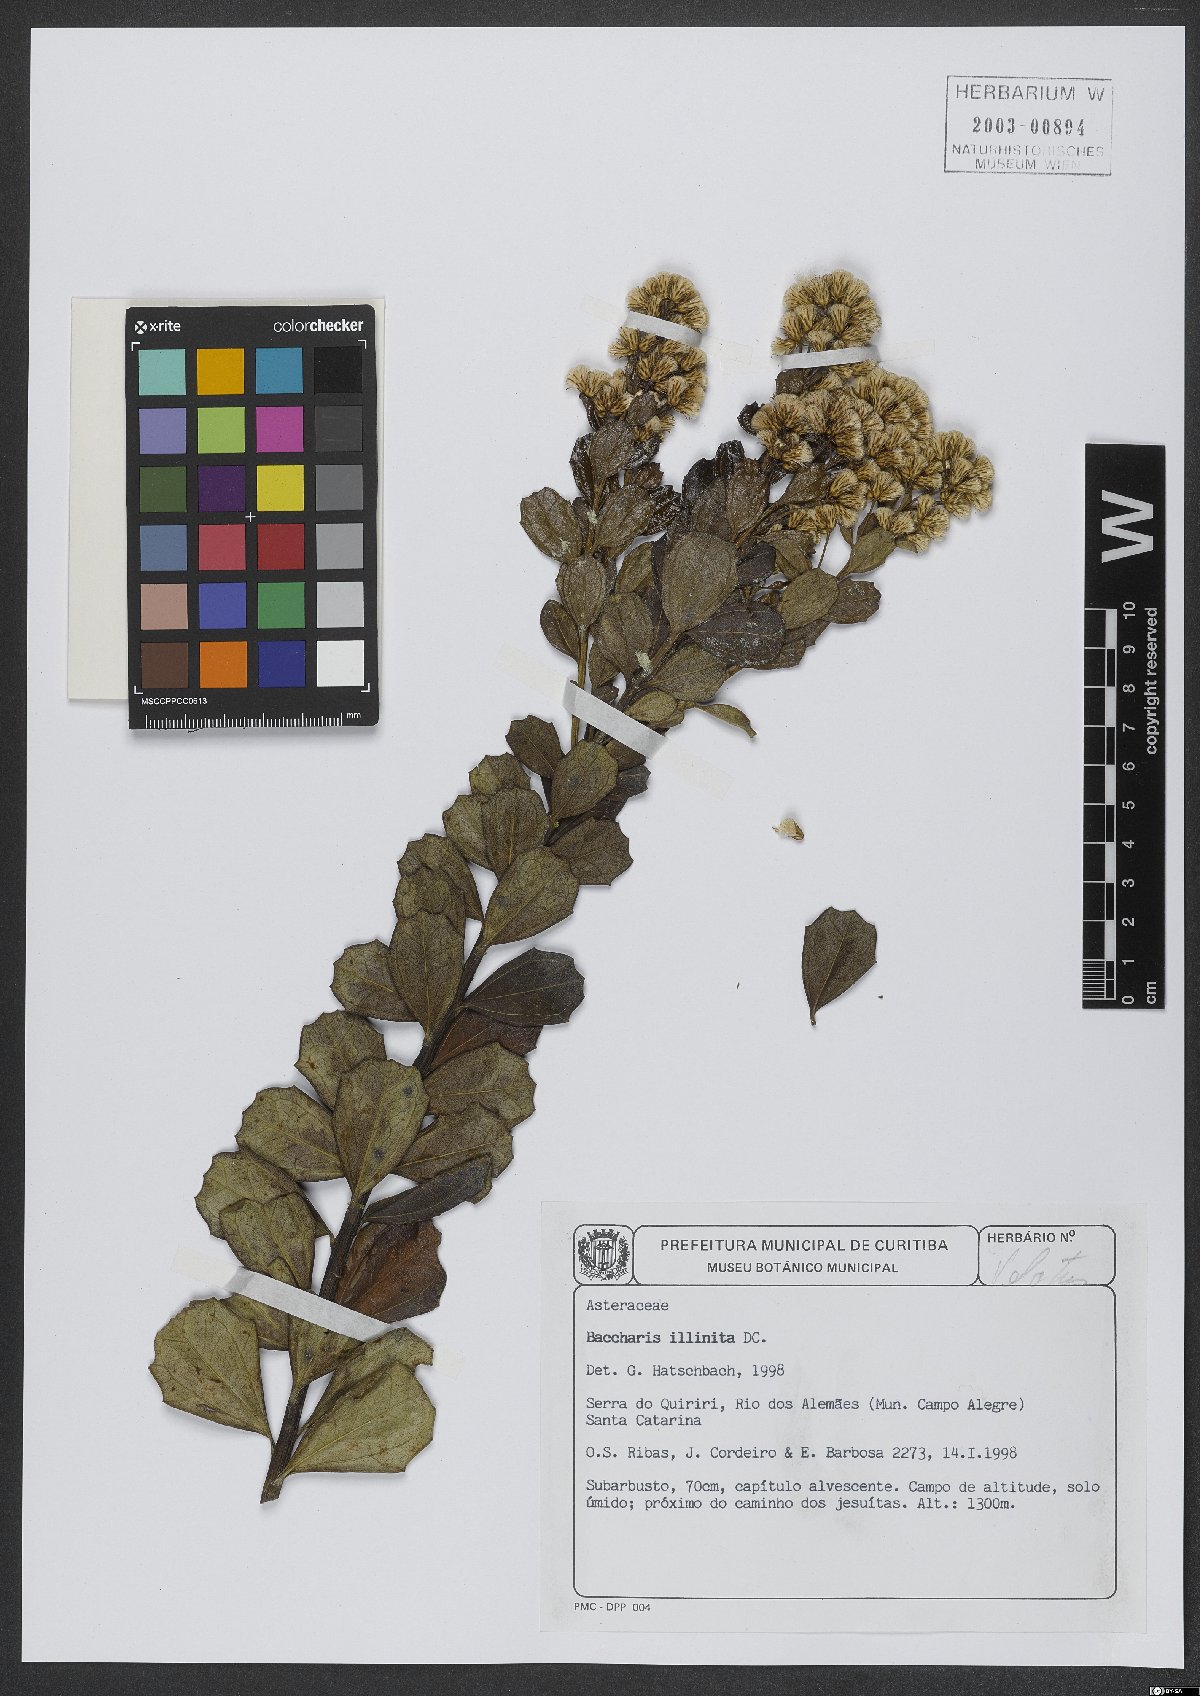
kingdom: Plantae
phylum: Tracheophyta
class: Magnoliopsida
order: Asterales
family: Asteraceae
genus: Baccharis
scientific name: Baccharis tridentata
